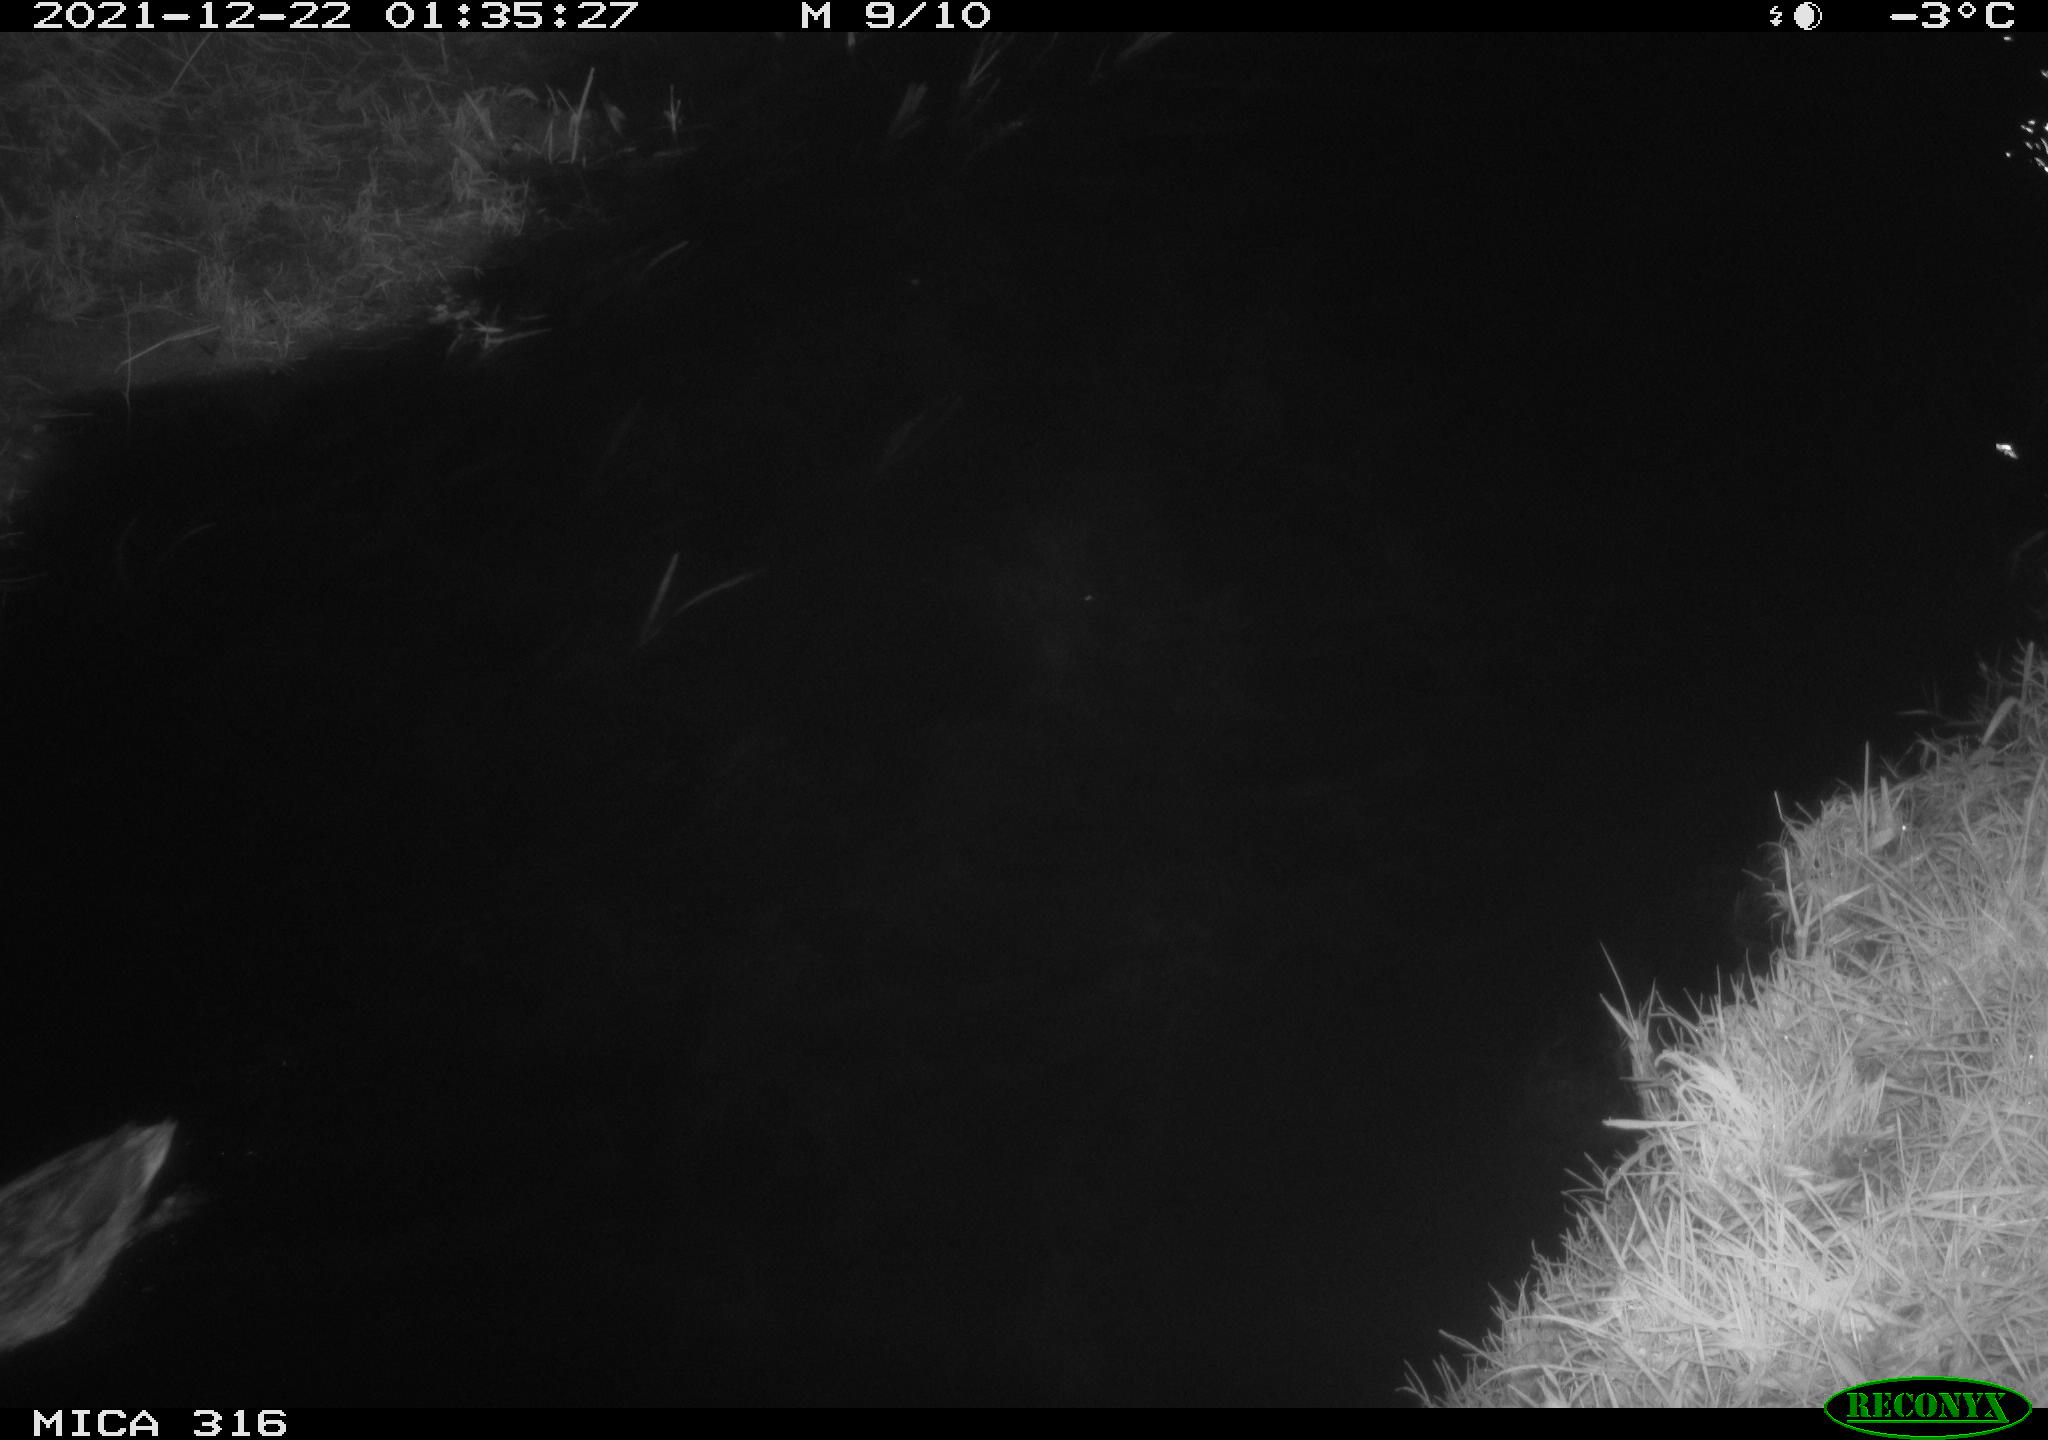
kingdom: Animalia
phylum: Chordata
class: Aves
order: Anseriformes
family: Anatidae
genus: Anas
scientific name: Anas
